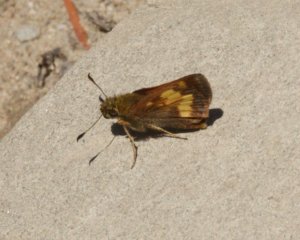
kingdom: Animalia
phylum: Arthropoda
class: Insecta
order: Lepidoptera
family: Hesperiidae
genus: Lon
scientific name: Lon hobomok
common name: Hobomok Skipper
